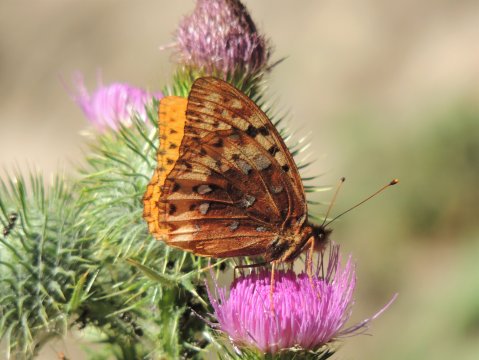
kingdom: Animalia
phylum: Arthropoda
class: Insecta
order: Lepidoptera
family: Nymphalidae
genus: Speyeria
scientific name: Speyeria cybele
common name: Great Spangled Fritillary
